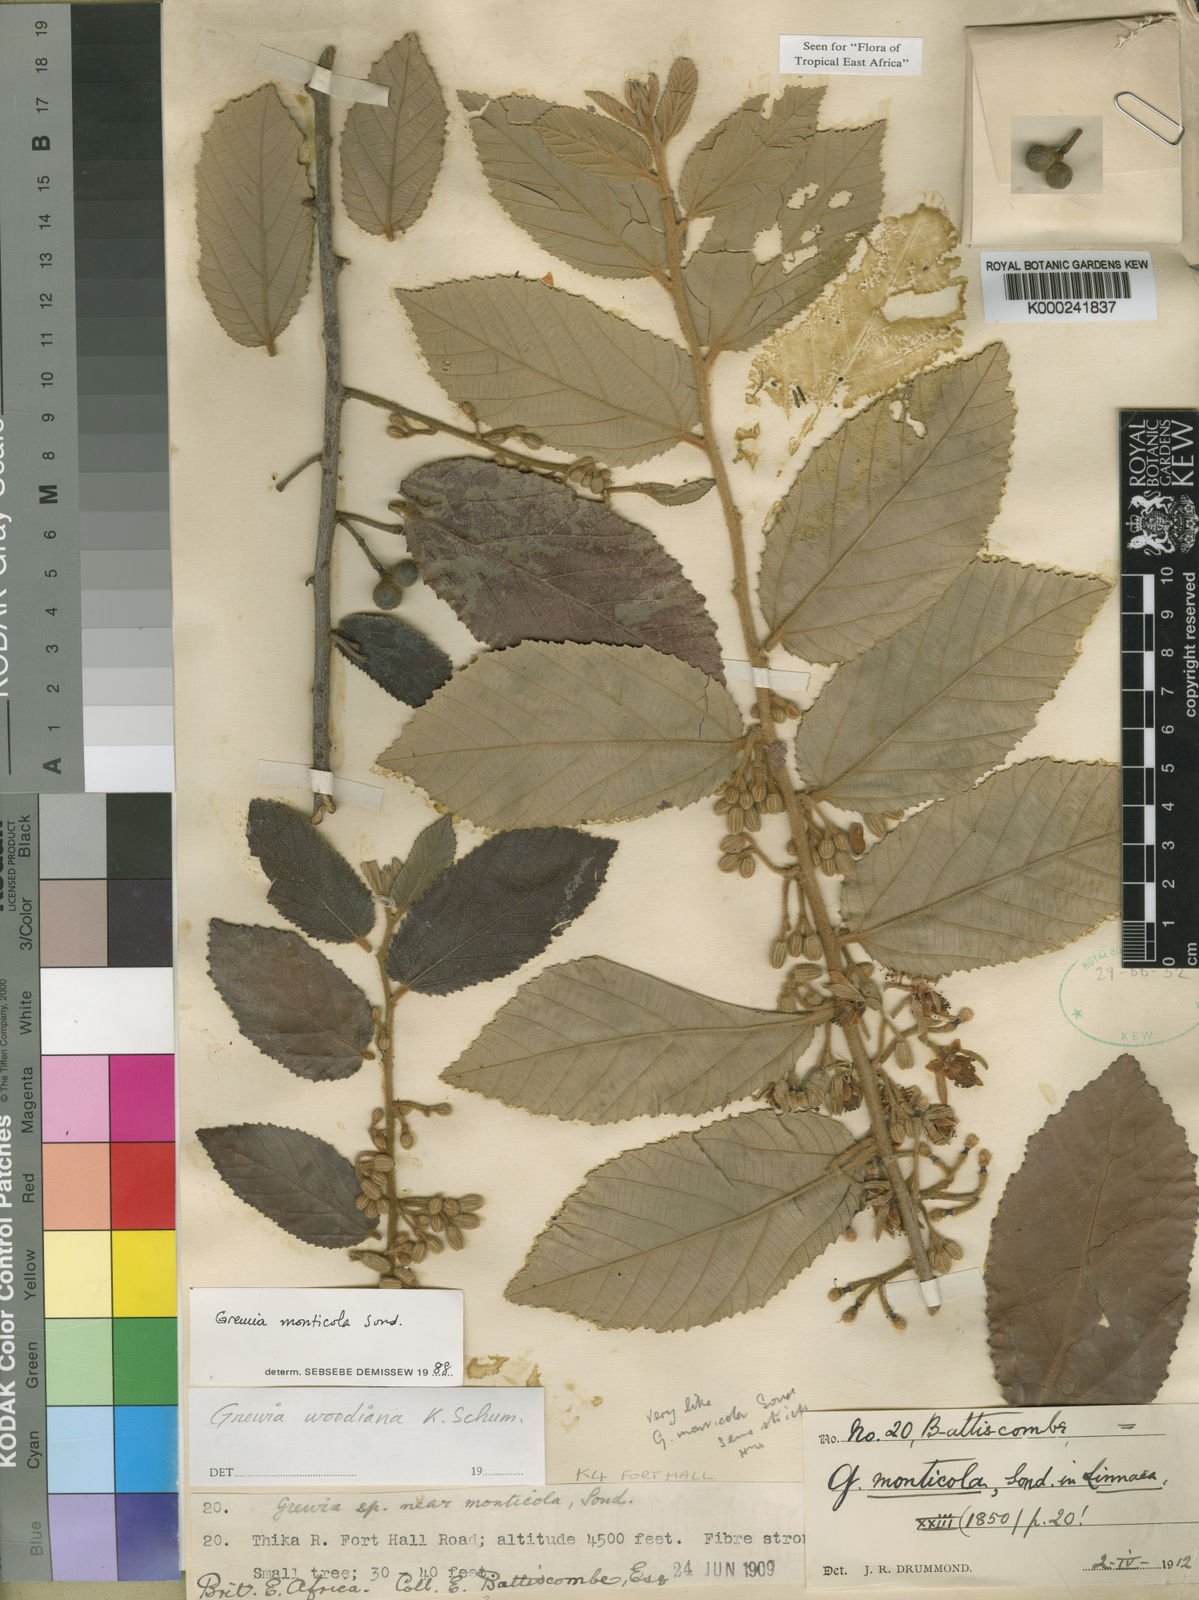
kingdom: Plantae
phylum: Tracheophyta
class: Magnoliopsida
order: Malvales
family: Malvaceae
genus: Grewia
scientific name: Grewia woodiana
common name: Golden fruit raisin
